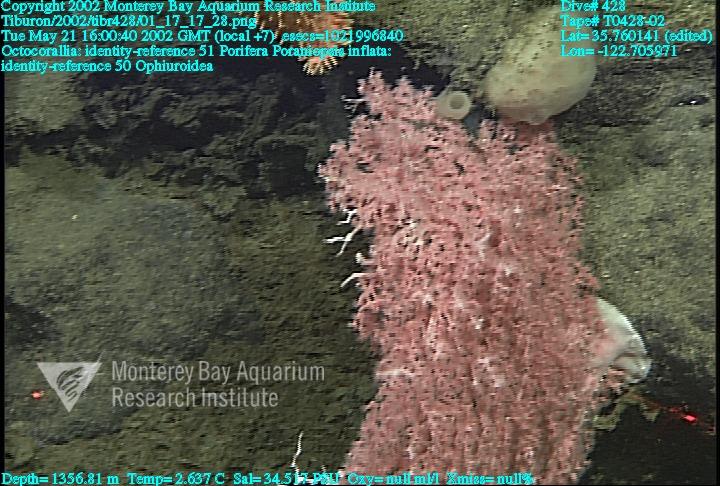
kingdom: Animalia
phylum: Porifera
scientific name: Porifera
